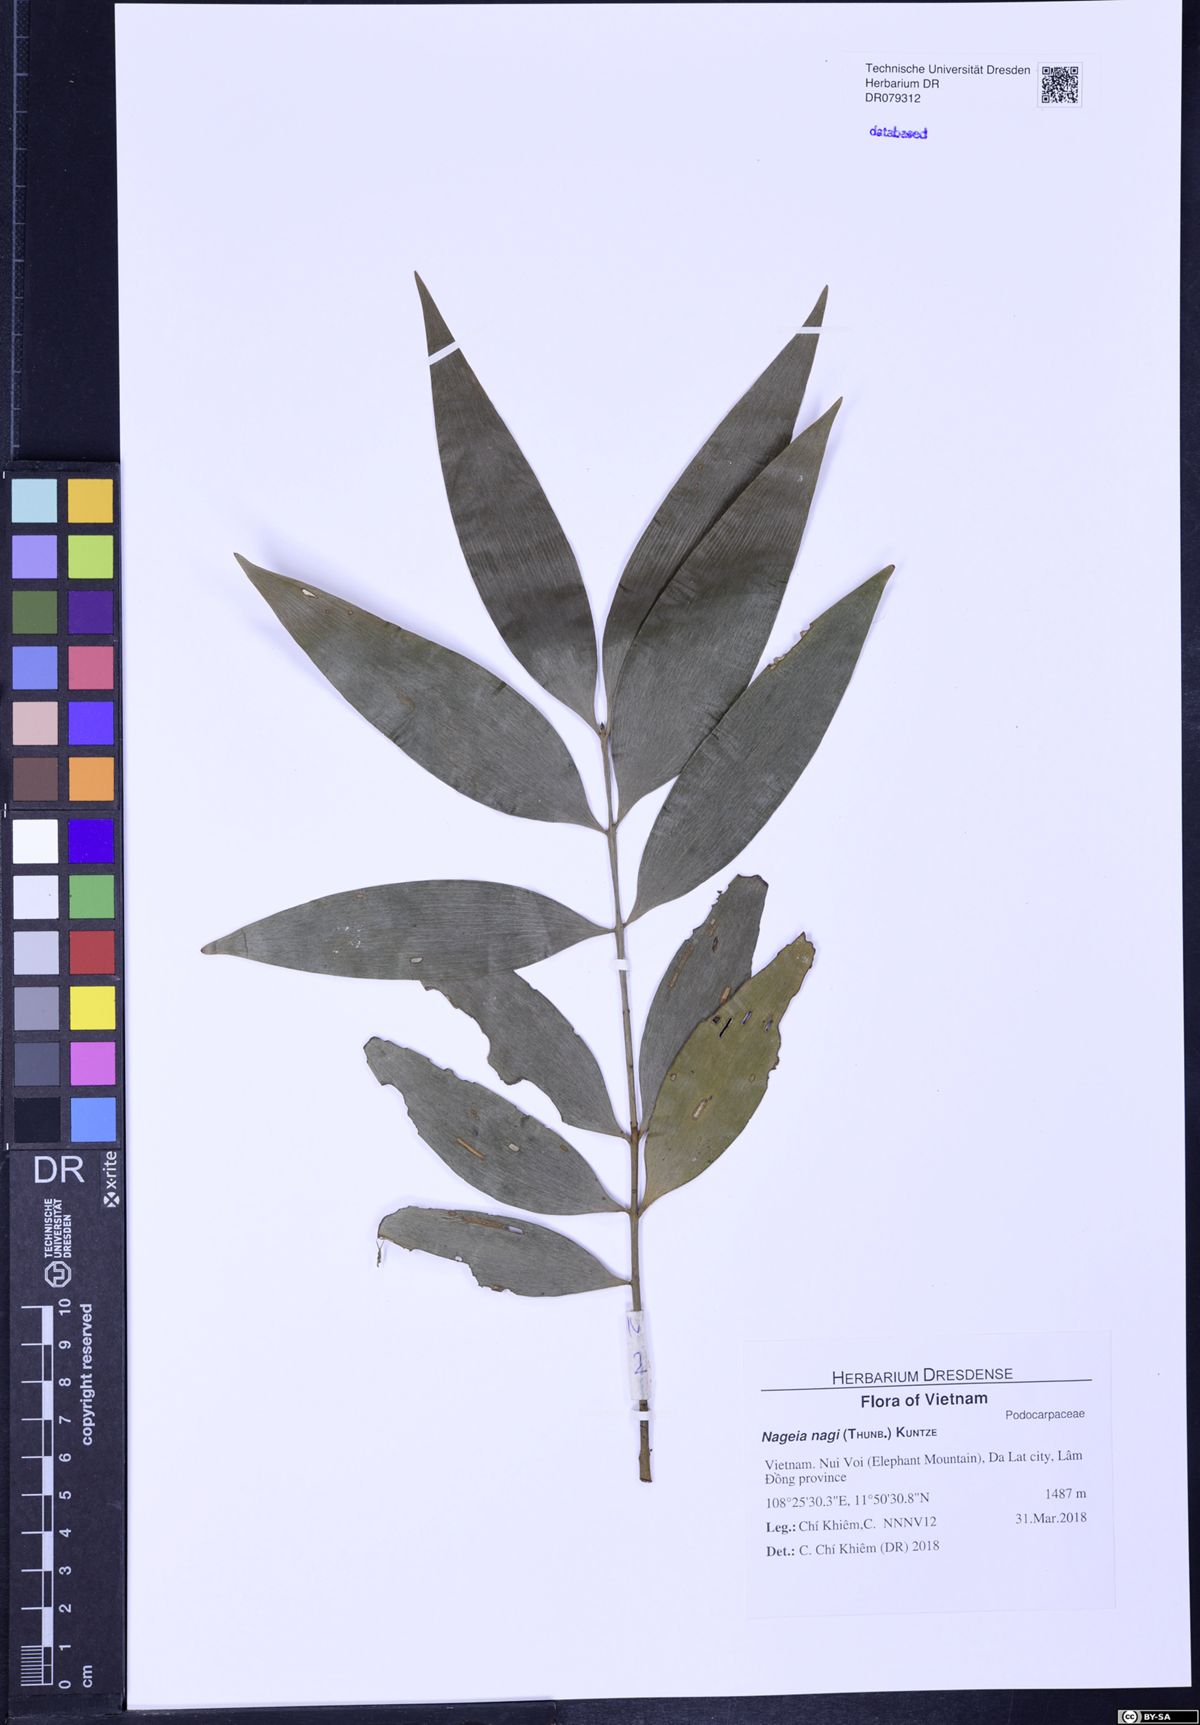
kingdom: Plantae
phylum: Tracheophyta
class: Pinopsida
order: Pinales
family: Podocarpaceae
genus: Nageia
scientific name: Nageia nagi
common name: Kaphal
